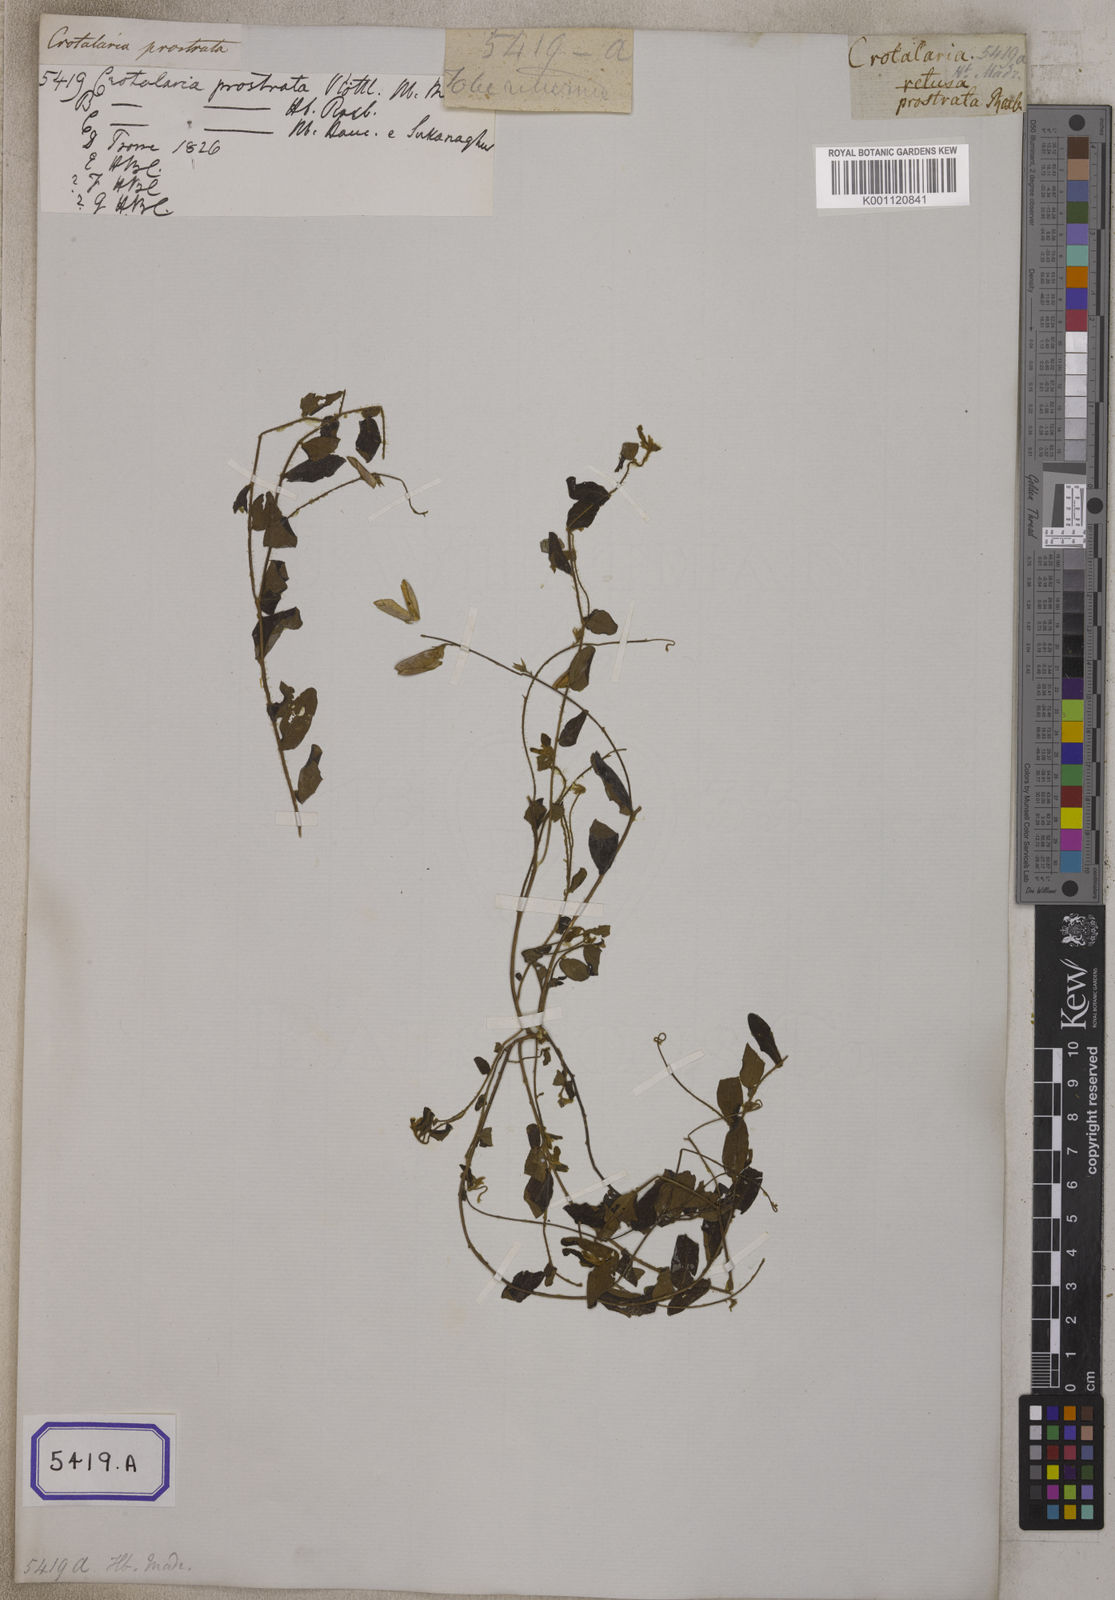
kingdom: Plantae
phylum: Tracheophyta
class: Magnoliopsida
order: Fabales
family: Fabaceae
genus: Crotalaria
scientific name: Crotalaria
